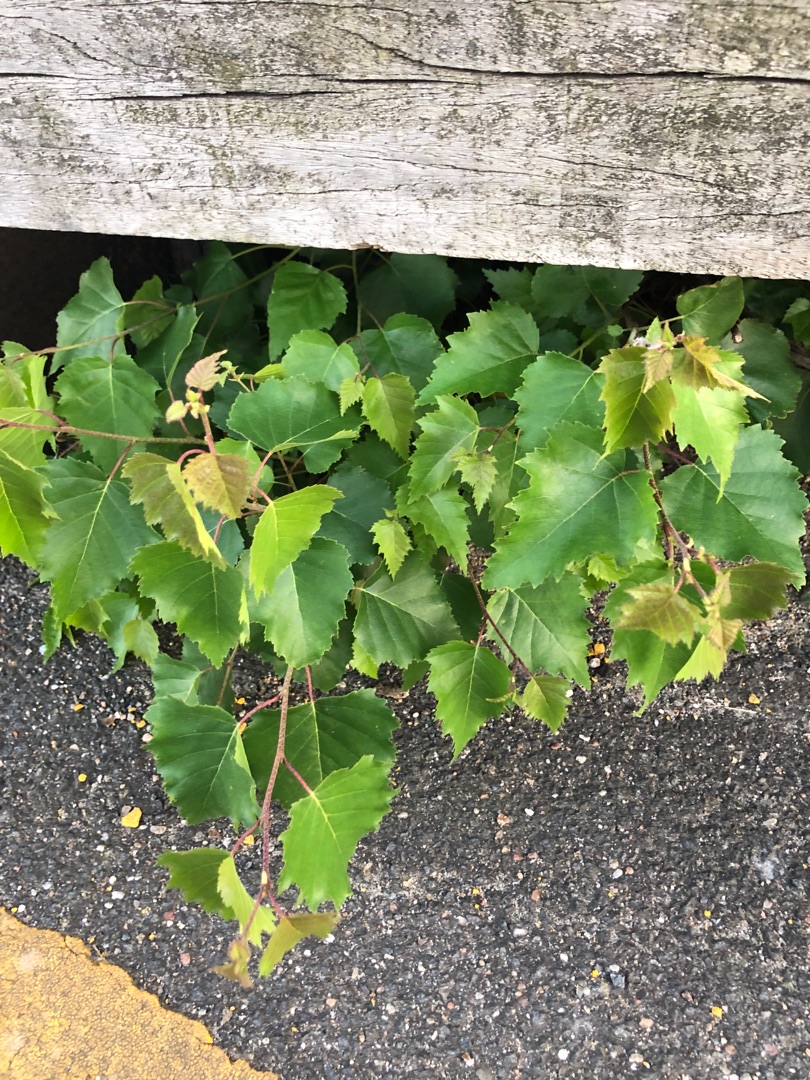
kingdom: Plantae
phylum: Tracheophyta
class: Magnoliopsida
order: Fagales
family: Betulaceae
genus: Betula
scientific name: Betula pendula
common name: Vorte-birk
